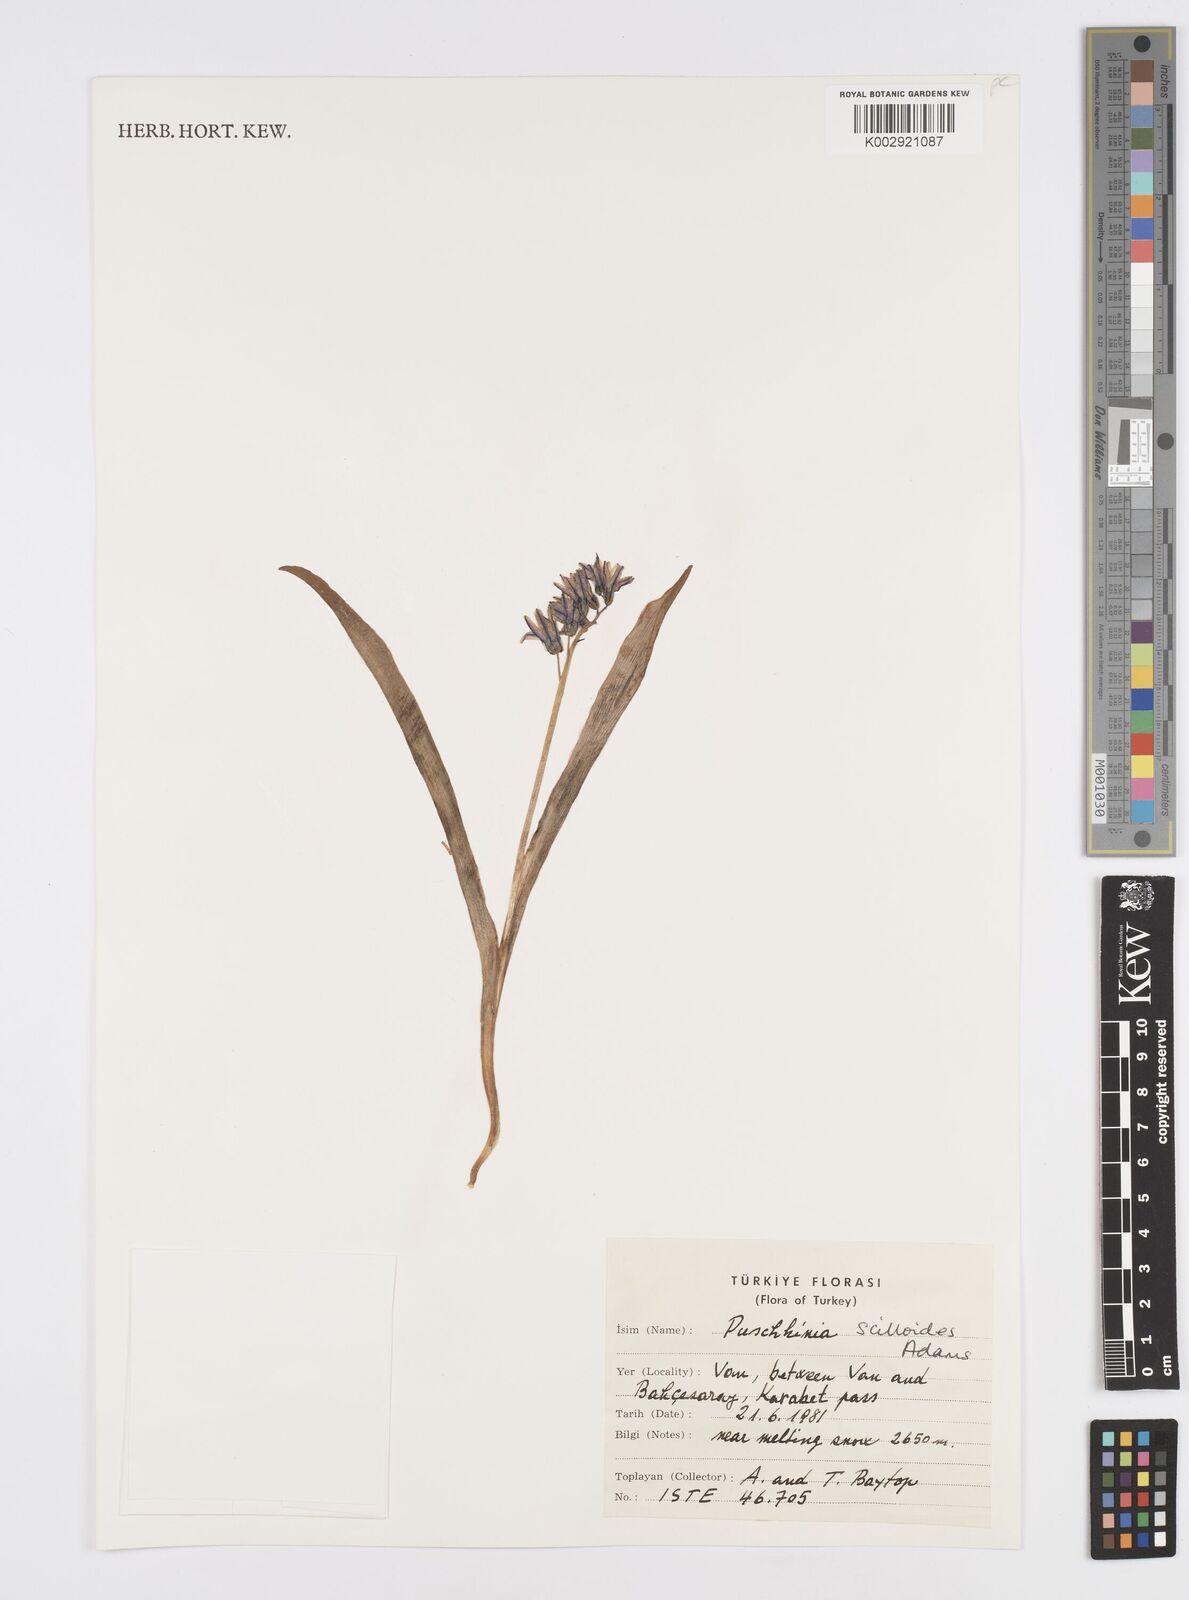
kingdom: Plantae
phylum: Tracheophyta
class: Liliopsida
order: Asparagales
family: Asparagaceae
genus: Puschkinia
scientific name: Puschkinia scilloides
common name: Striped squill
